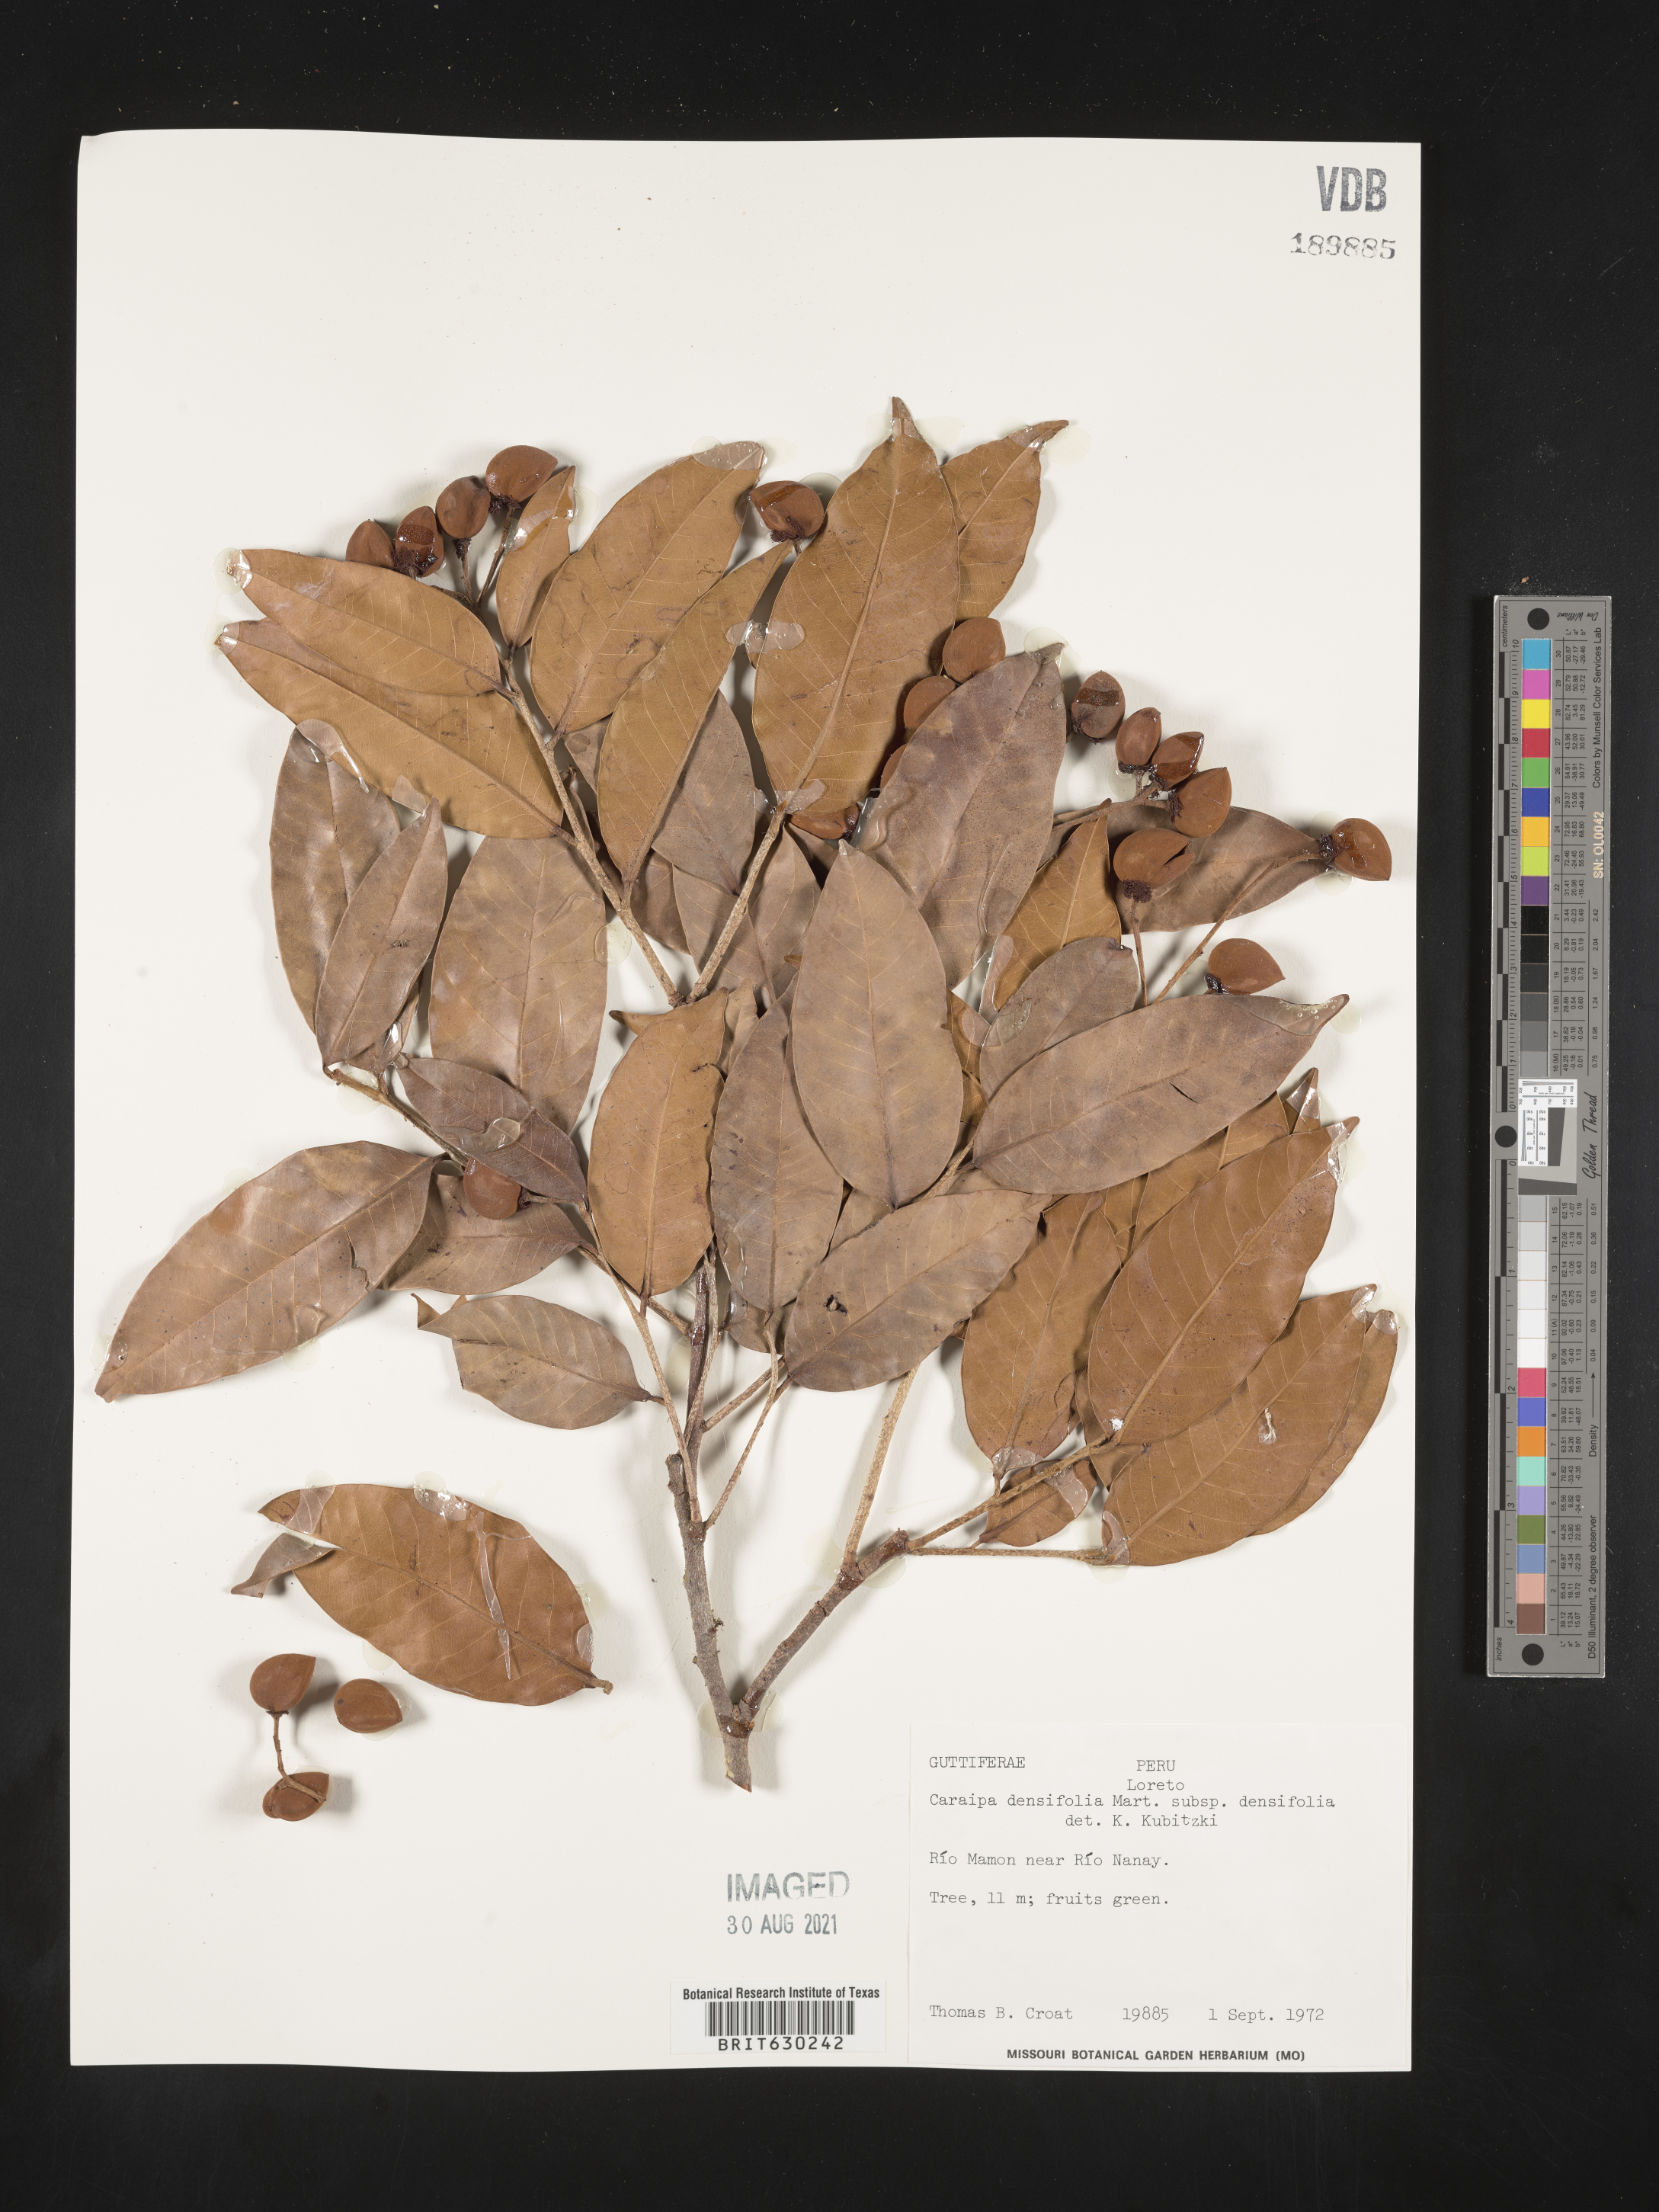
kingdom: Plantae
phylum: Tracheophyta
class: Magnoliopsida
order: Malpighiales
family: Calophyllaceae
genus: Caraipa
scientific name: Caraipa densifolia
